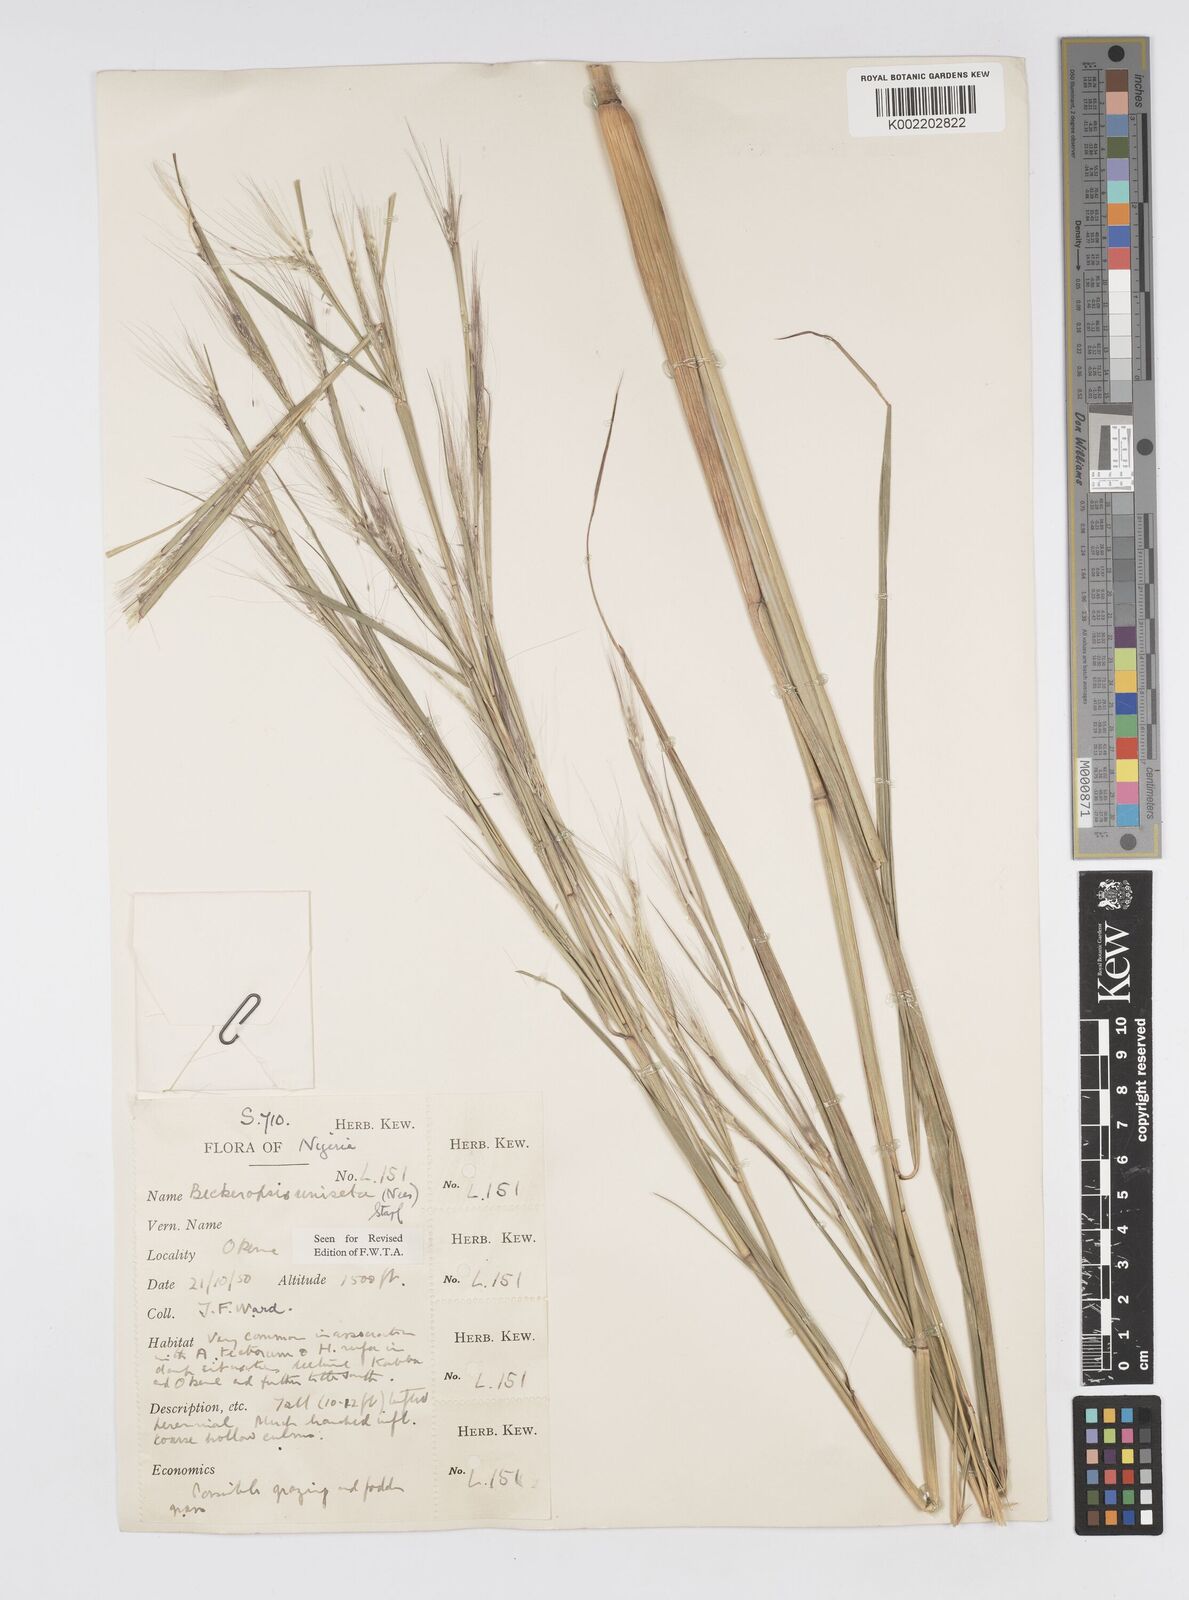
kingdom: Plantae
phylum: Tracheophyta
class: Liliopsida
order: Poales
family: Poaceae
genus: Cenchrus
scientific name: Cenchrus unisetus
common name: Natal grass
